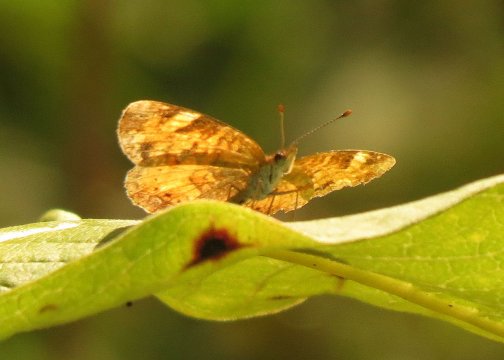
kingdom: Animalia
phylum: Arthropoda
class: Insecta
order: Lepidoptera
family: Nymphalidae
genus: Phyciodes
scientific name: Phyciodes tharos
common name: Northern Crescent
